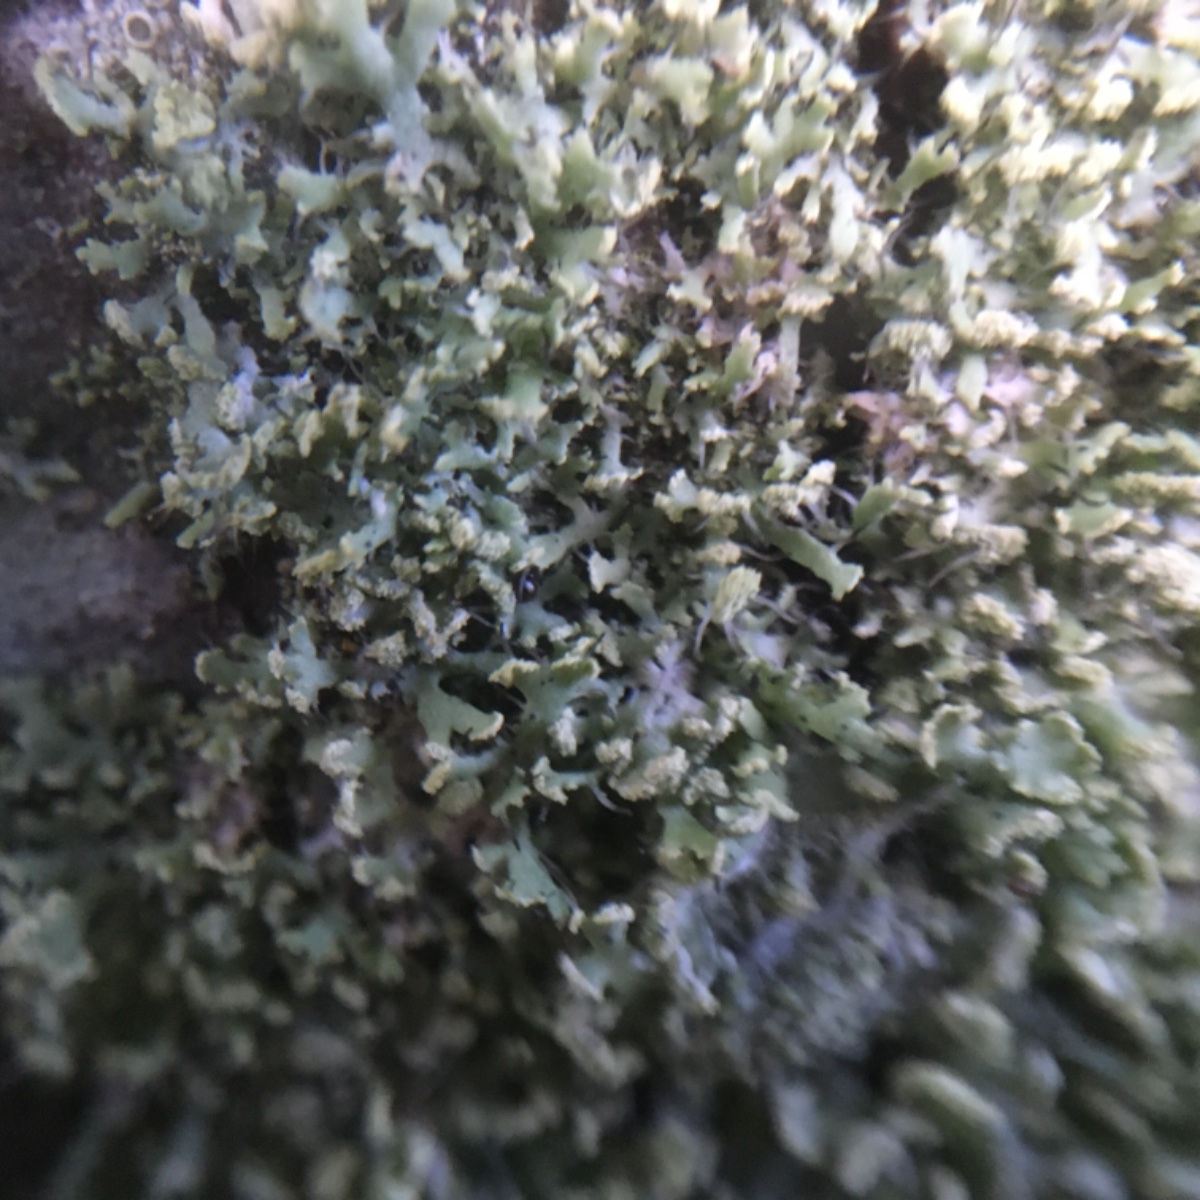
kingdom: Fungi
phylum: Ascomycota
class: Lecanoromycetes
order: Caliciales
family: Physciaceae
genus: Physcia
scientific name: Physcia tenella
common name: spæd rosetlav
